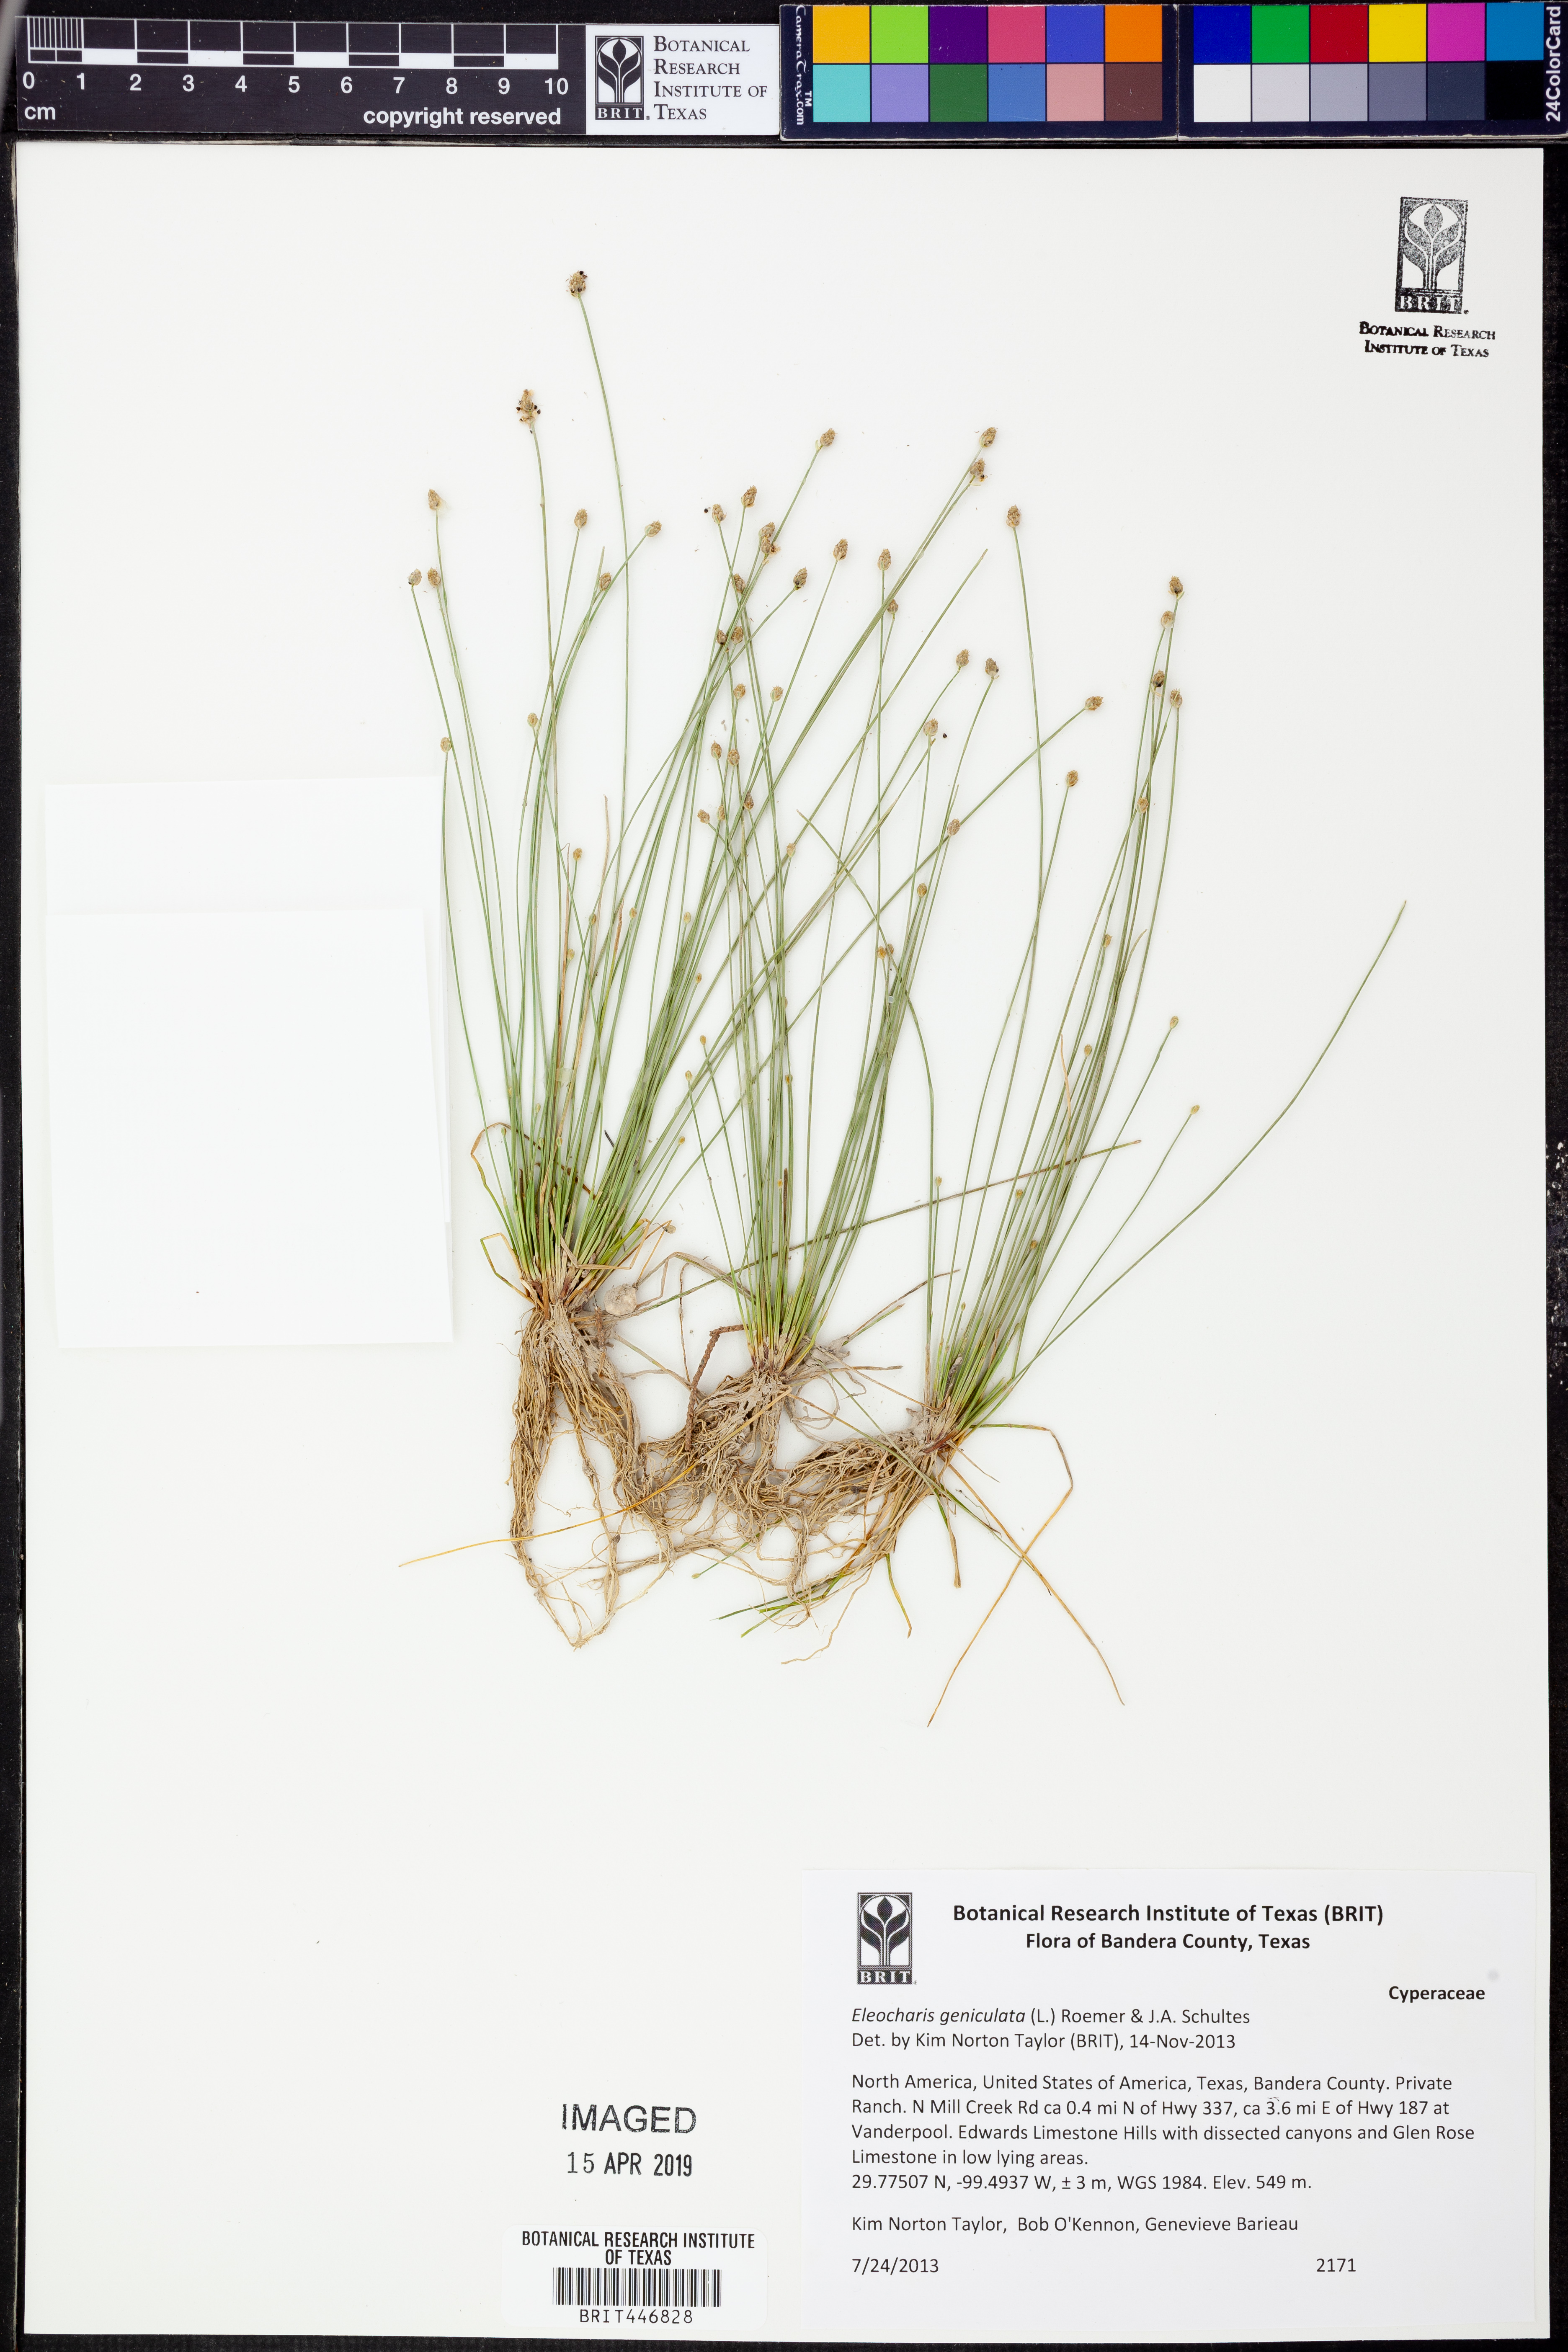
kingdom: Plantae
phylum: Tracheophyta
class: Liliopsida
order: Poales
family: Cyperaceae
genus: Eleocharis
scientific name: Eleocharis geniculata
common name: Canada spikesedge
